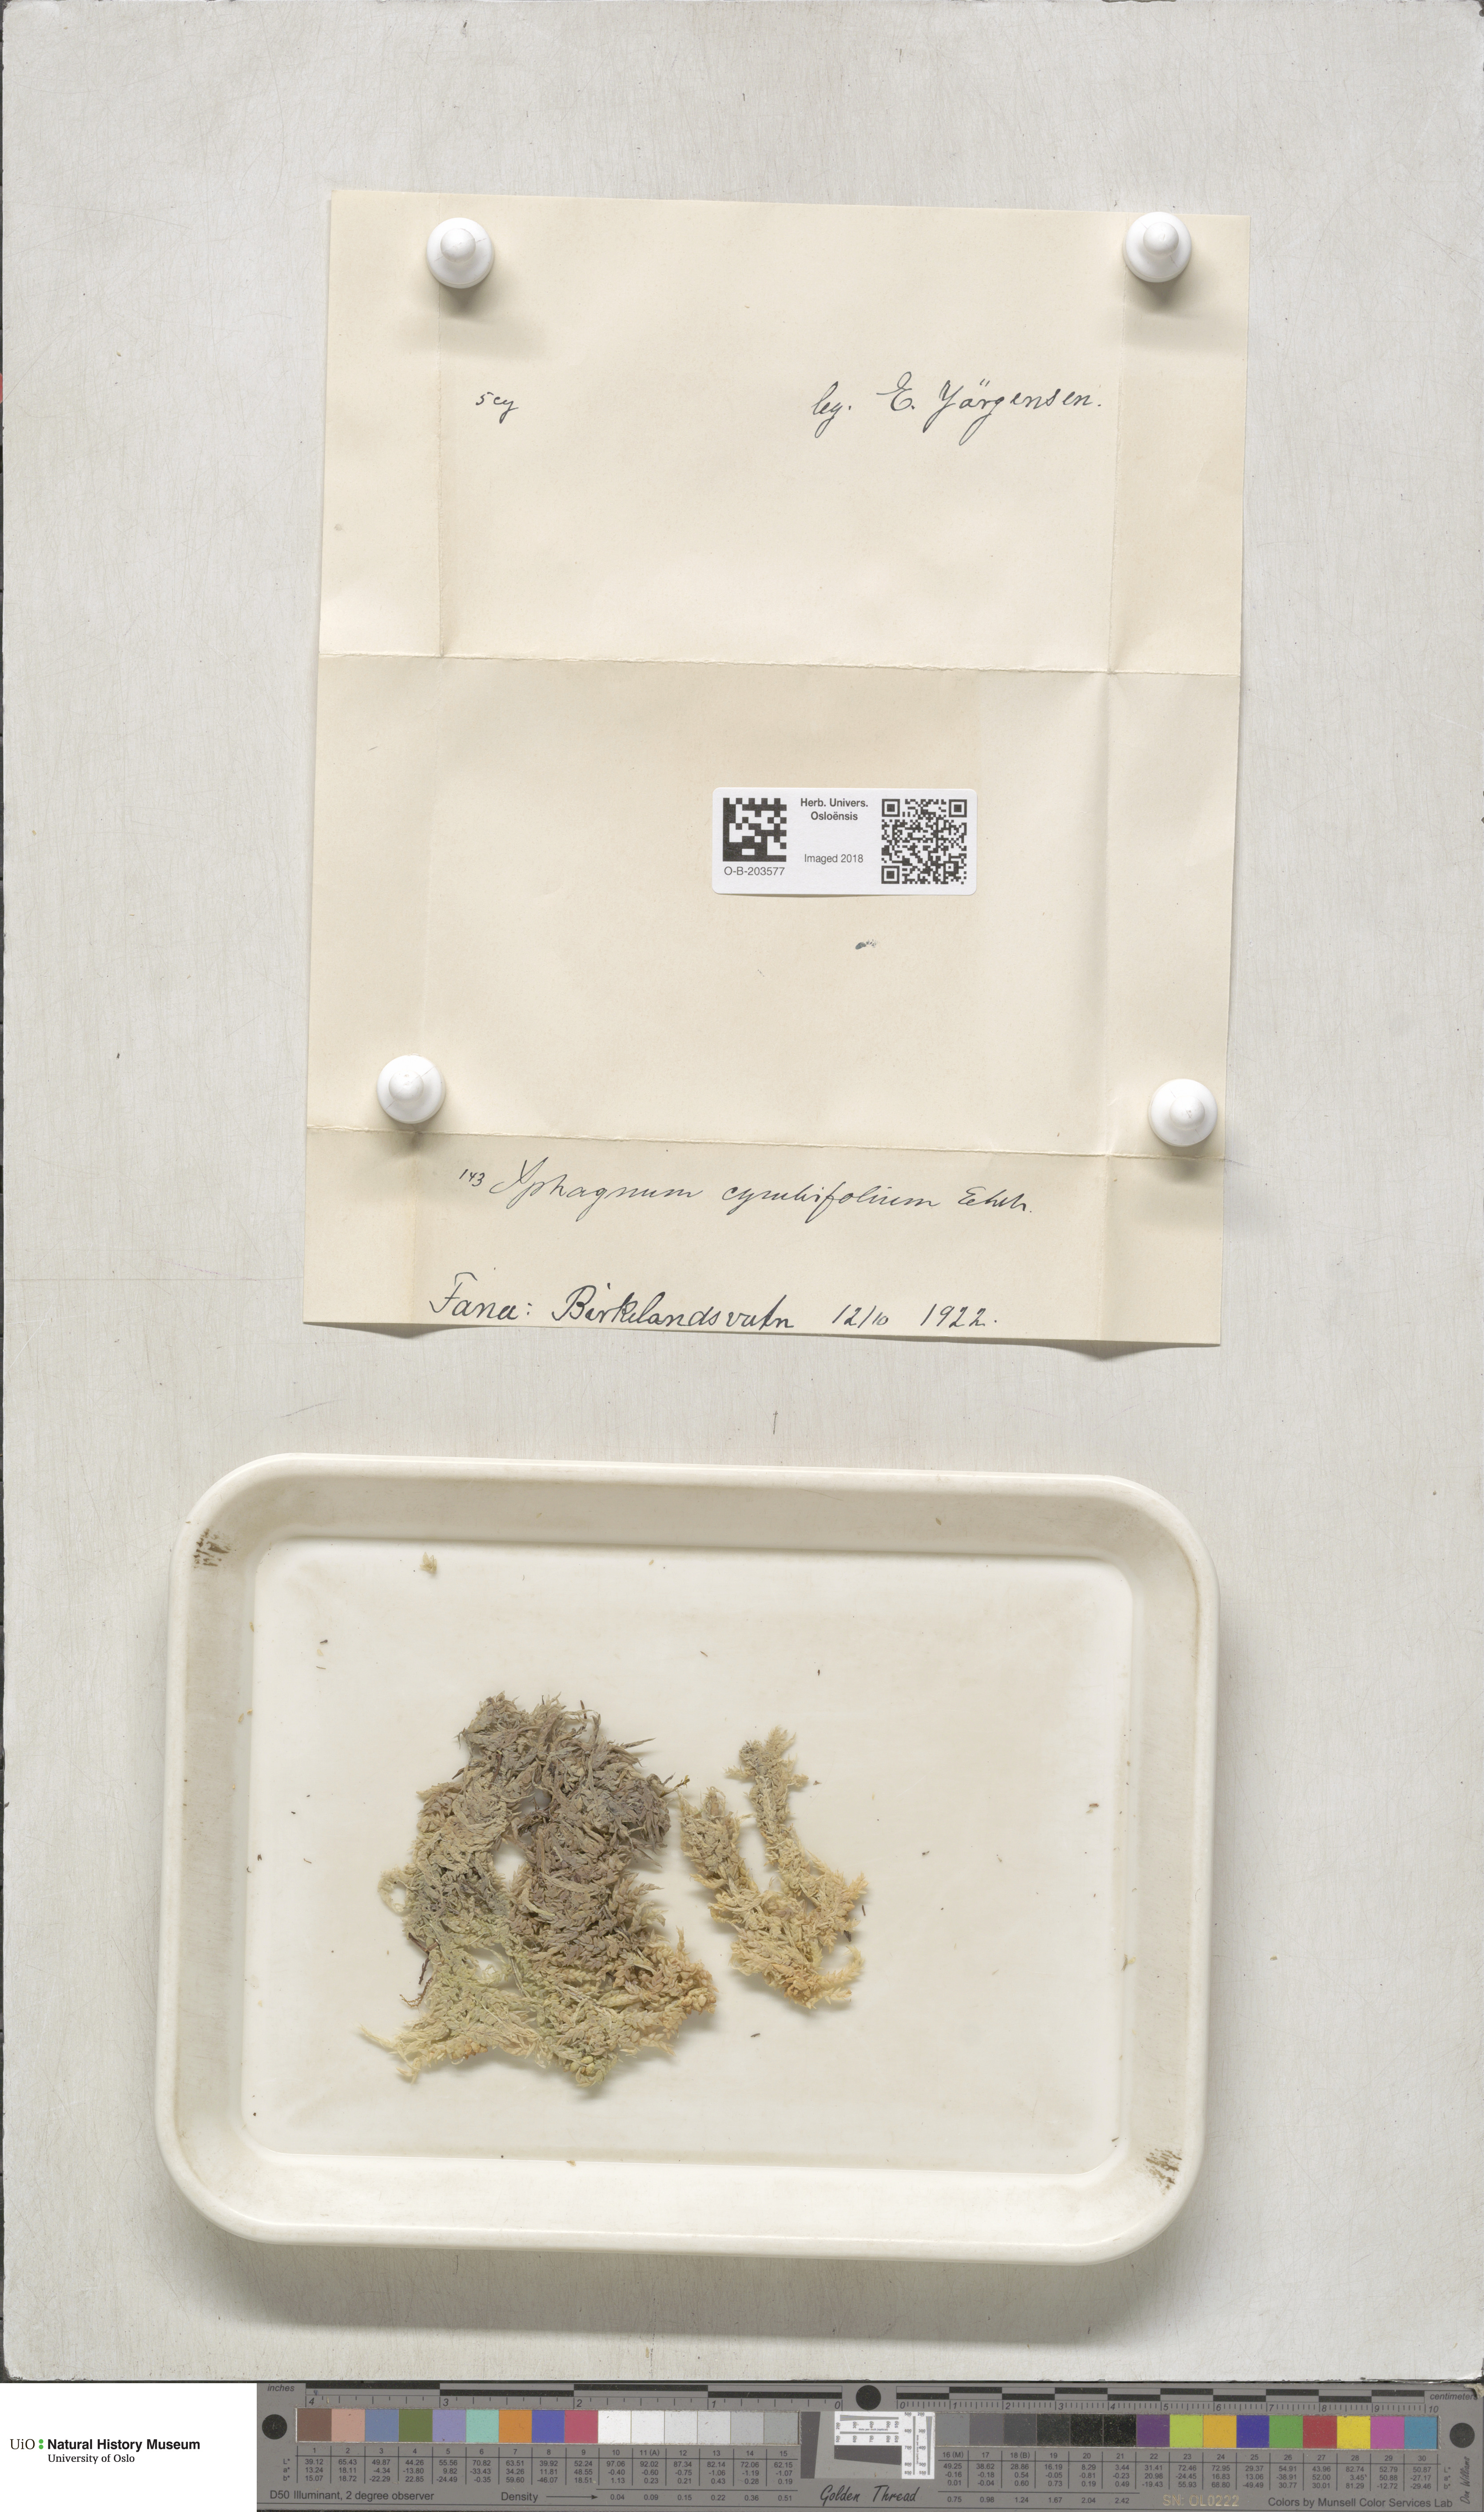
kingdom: Plantae
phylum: Bryophyta
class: Sphagnopsida
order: Sphagnales
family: Sphagnaceae
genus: Sphagnum
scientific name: Sphagnum palustre
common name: Blunt-leaved bog-moss
